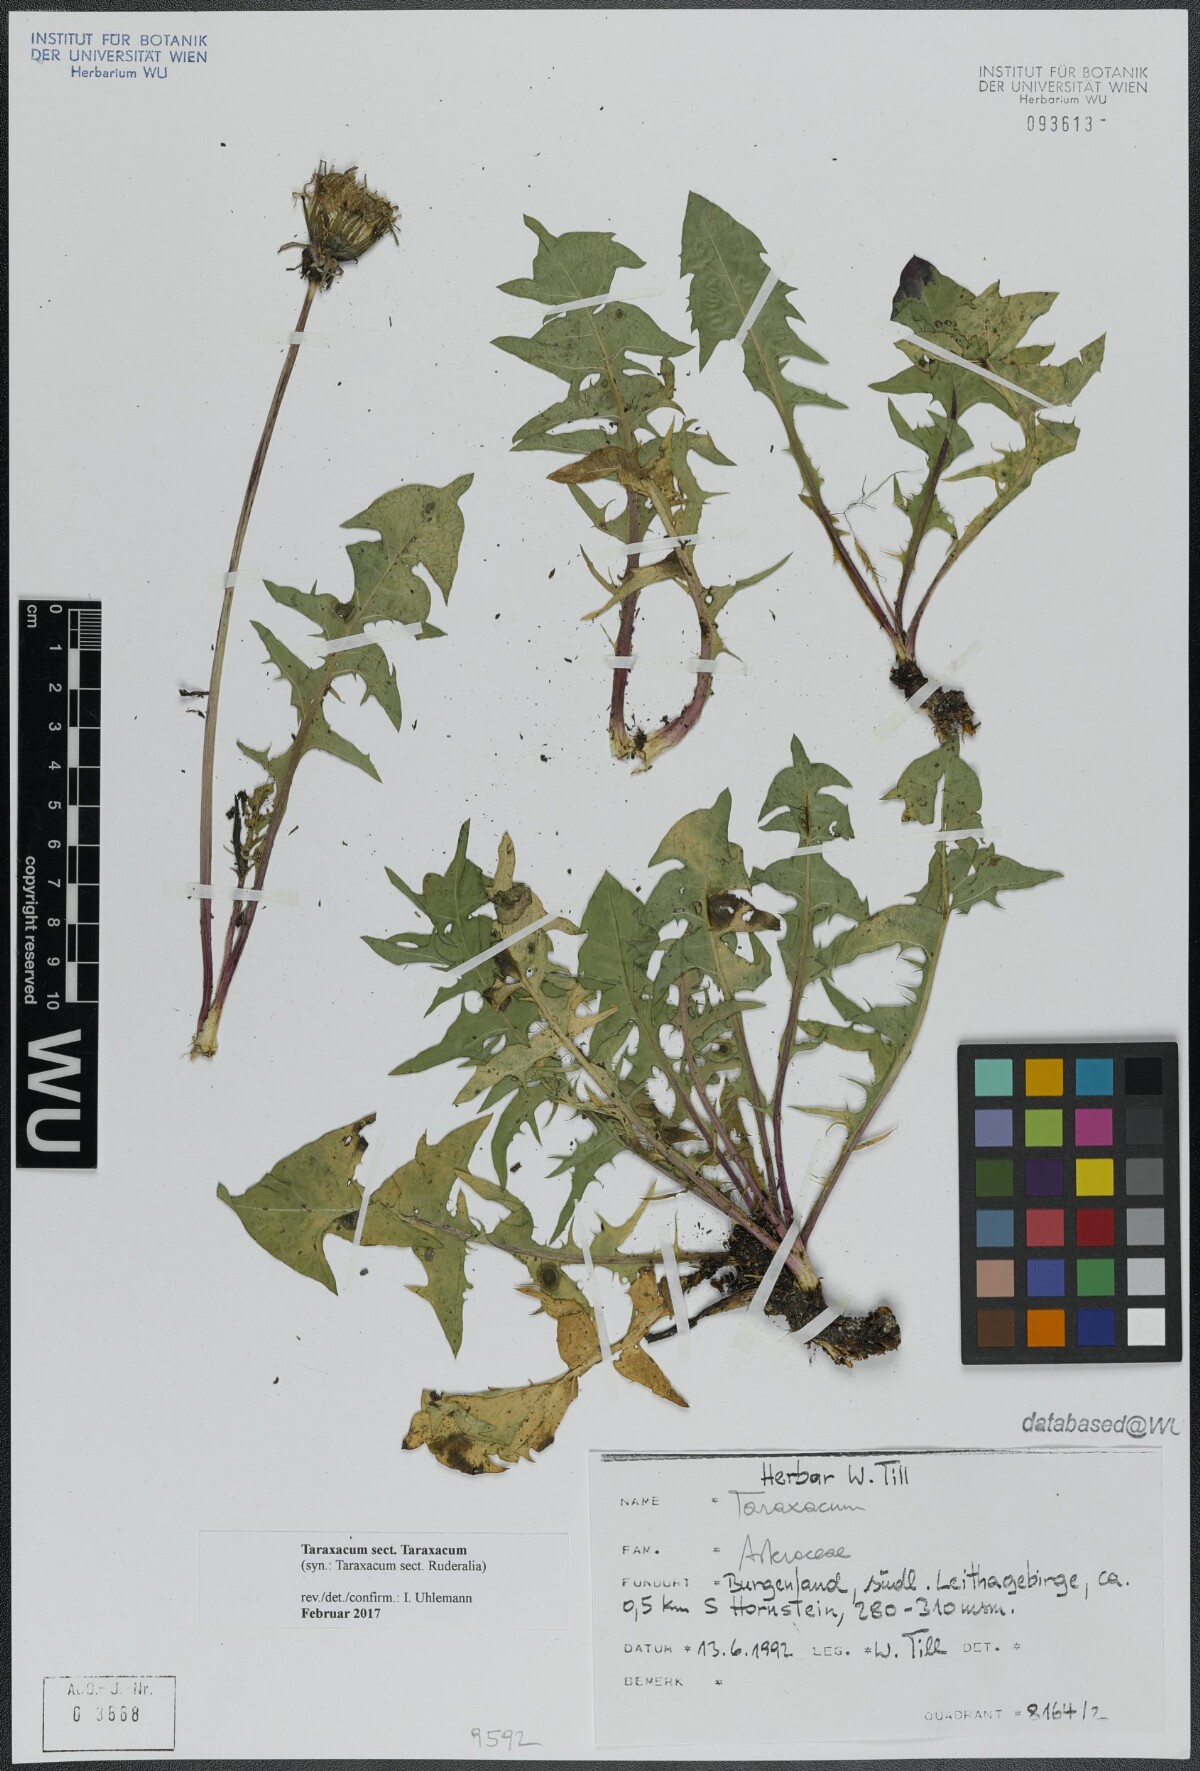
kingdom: Plantae
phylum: Tracheophyta
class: Magnoliopsida
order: Asterales
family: Asteraceae
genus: Taraxacum
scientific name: Taraxacum
